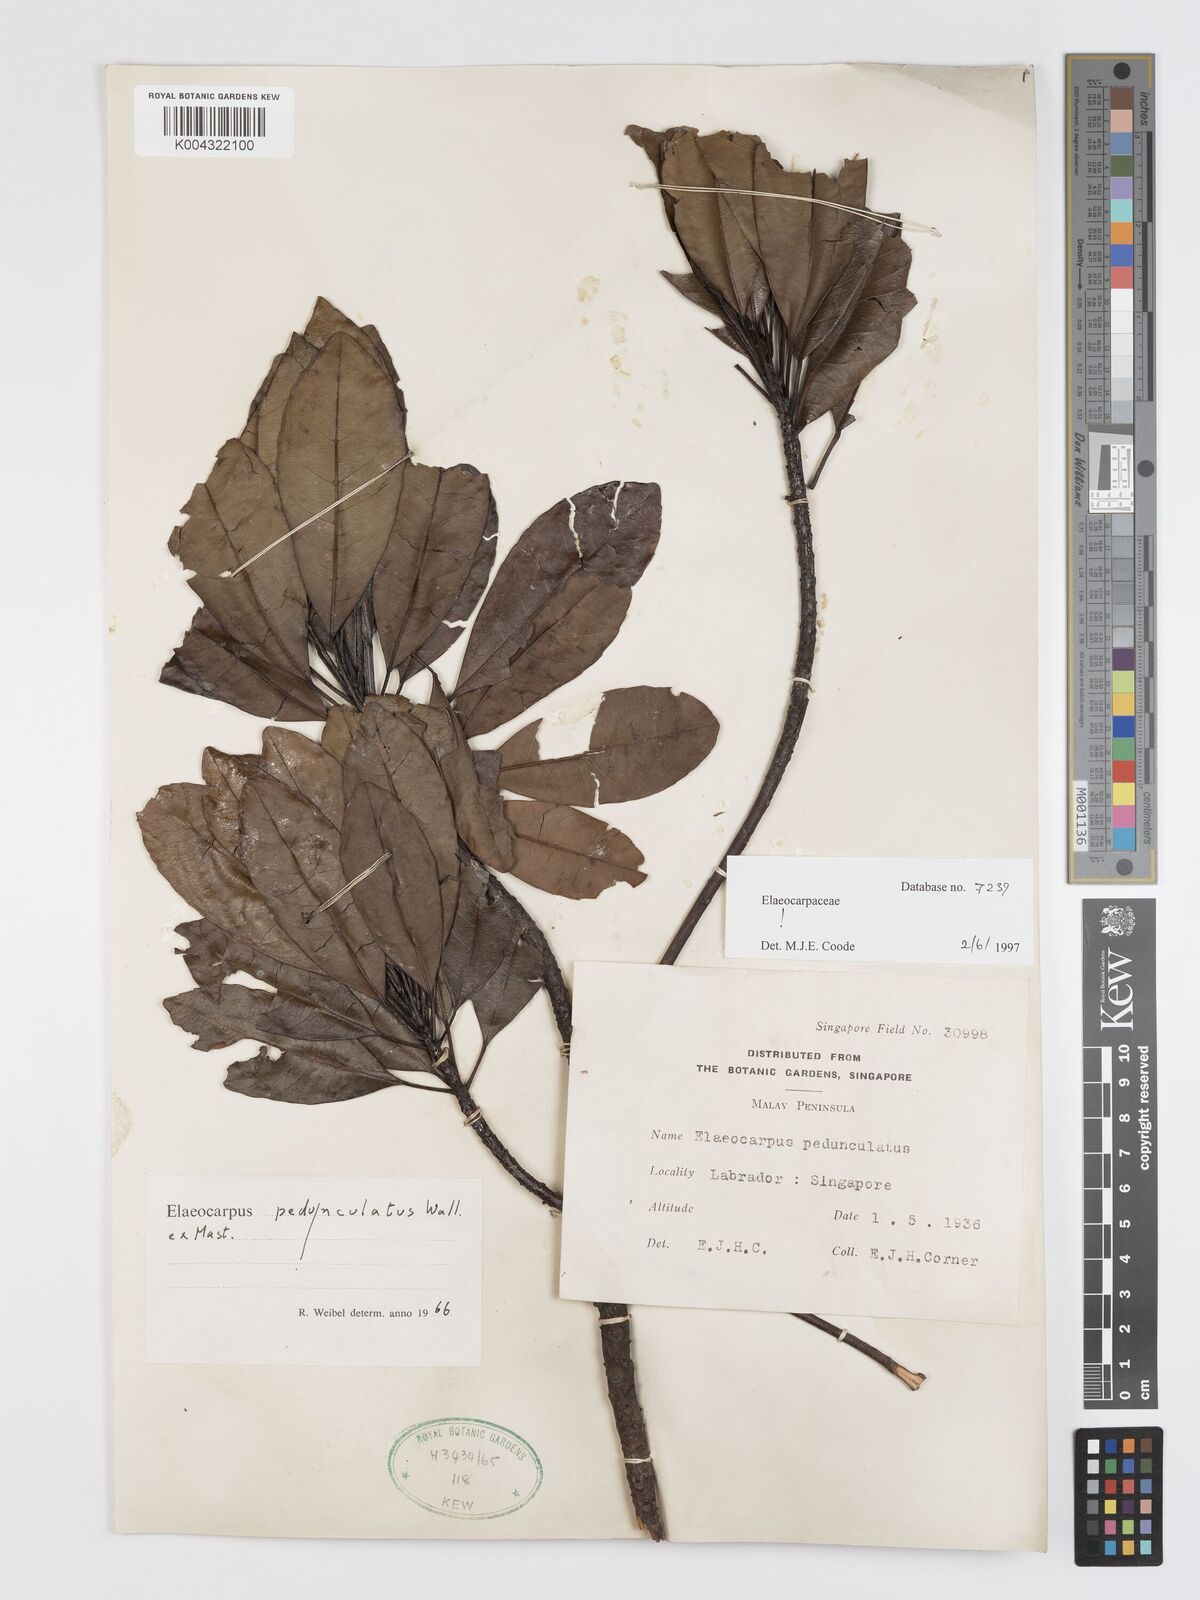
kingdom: Plantae
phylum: Tracheophyta
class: Magnoliopsida
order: Oxalidales
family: Elaeocarpaceae
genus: Elaeocarpus
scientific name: Elaeocarpus pedunculatus
